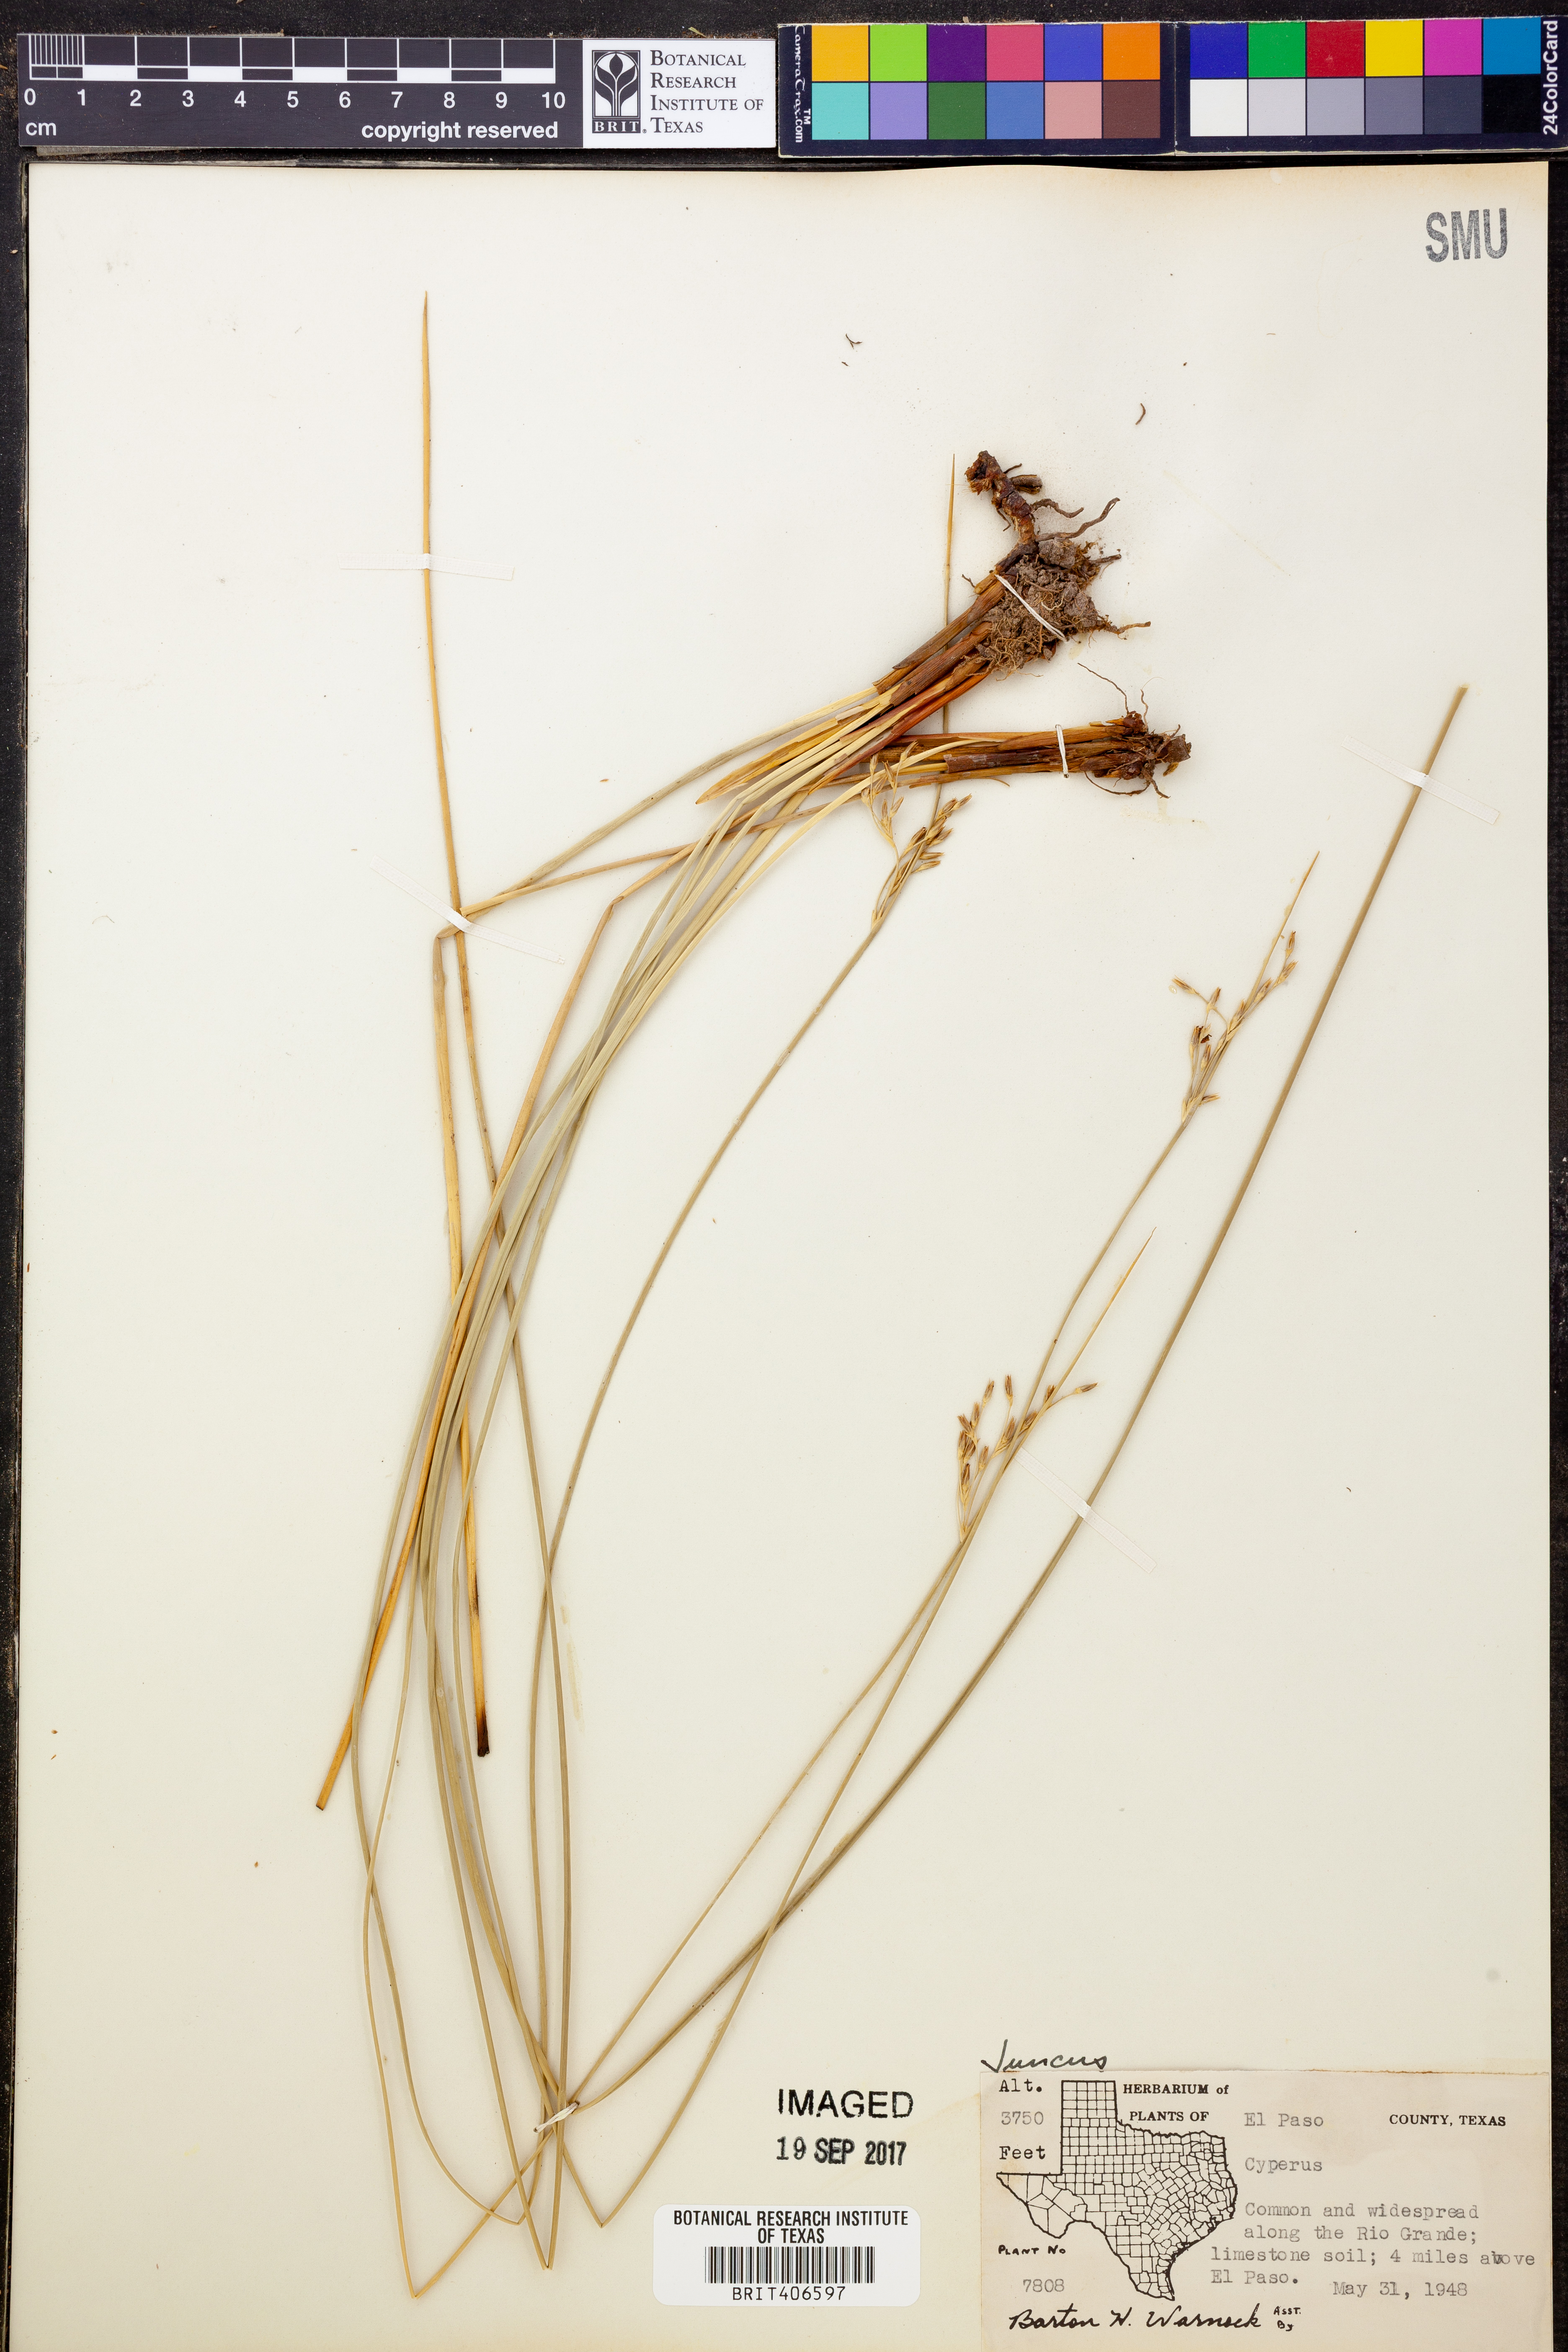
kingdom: Plantae
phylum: Tracheophyta
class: Liliopsida
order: Poales
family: Juncaceae
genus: Juncus
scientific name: Juncus
